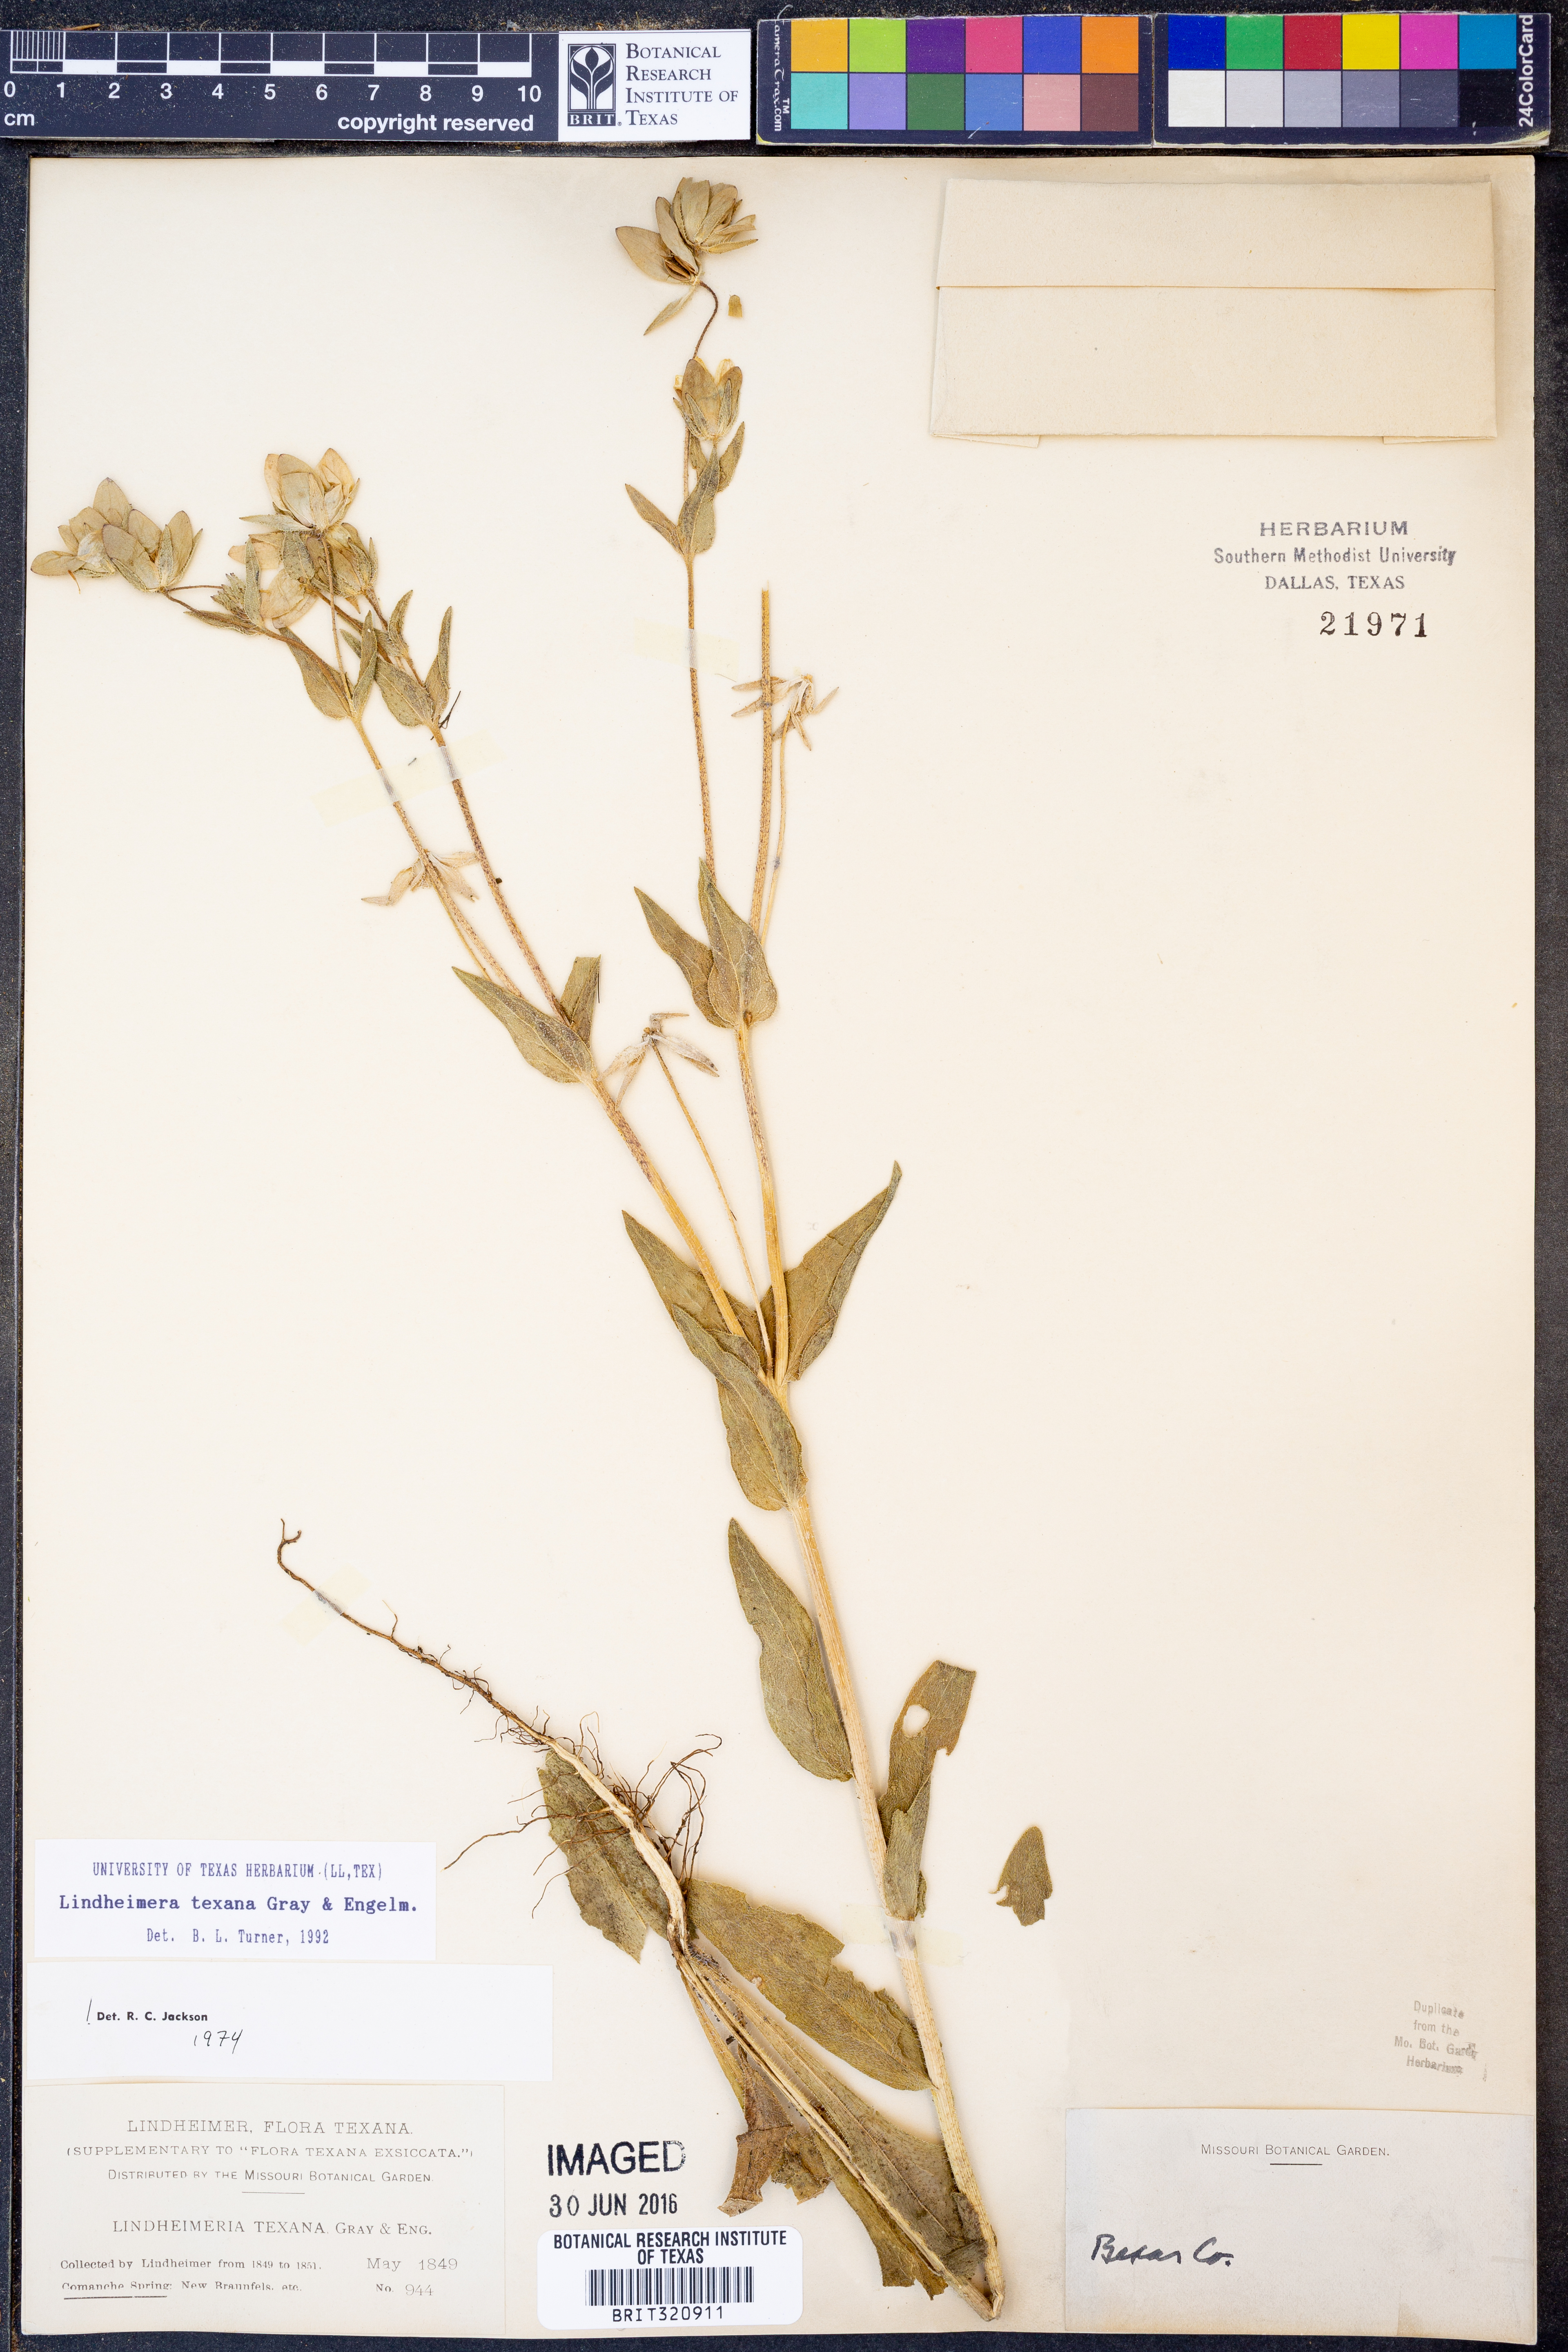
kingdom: Plantae
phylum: Tracheophyta
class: Magnoliopsida
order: Asterales
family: Asteraceae
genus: Lindheimera
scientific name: Lindheimera texana
